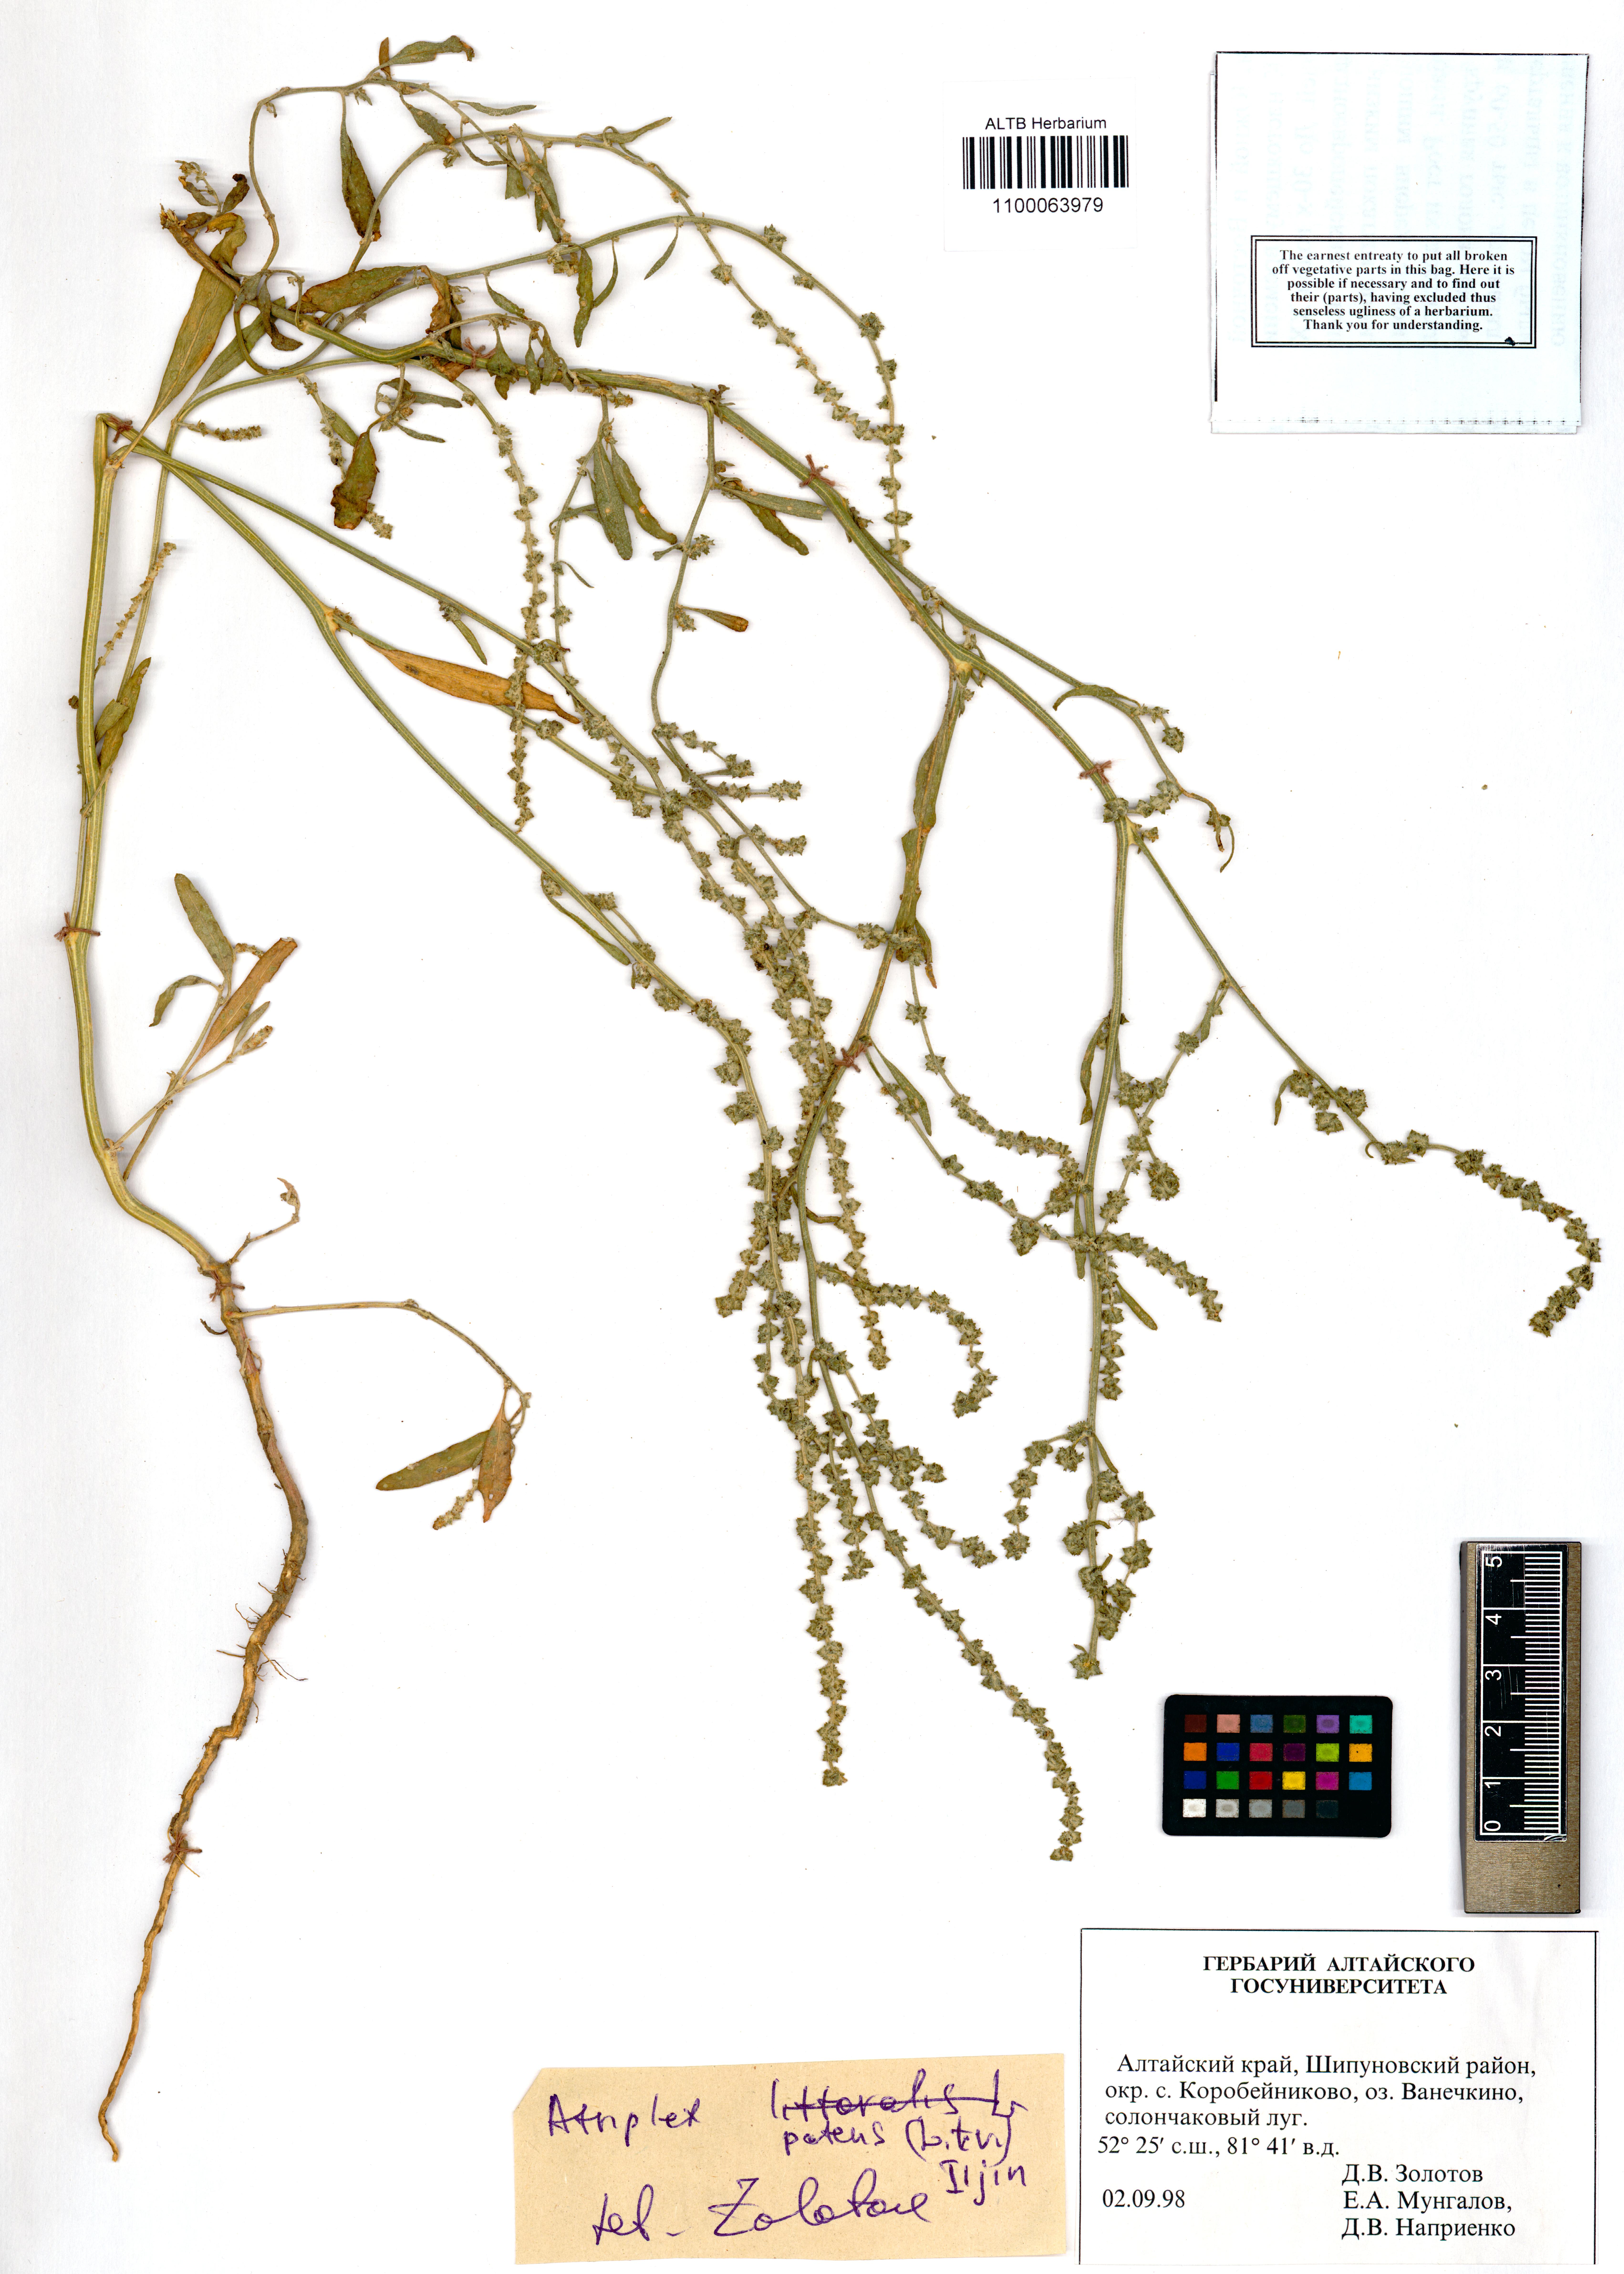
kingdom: Plantae
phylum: Tracheophyta
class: Magnoliopsida
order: Caryophyllales
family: Amaranthaceae
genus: Atriplex
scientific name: Atriplex patens
